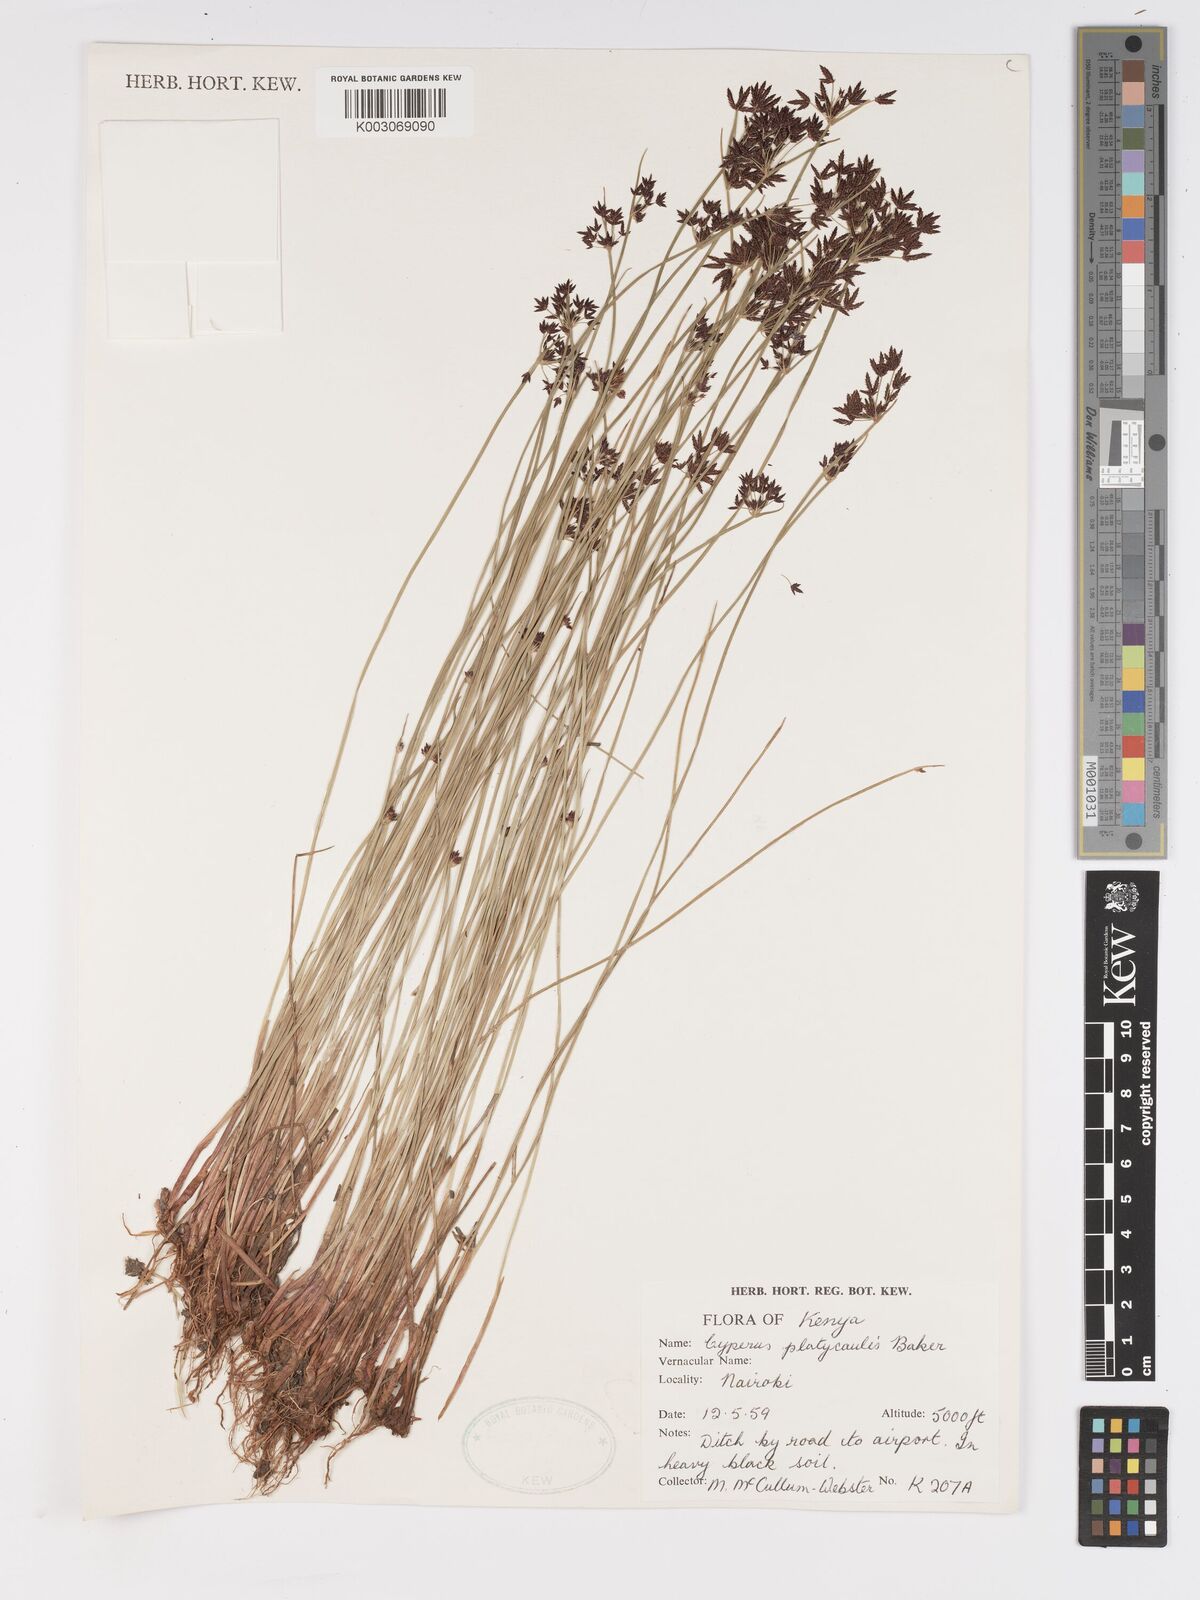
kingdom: Plantae
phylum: Tracheophyta
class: Liliopsida
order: Poales
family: Cyperaceae
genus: Cyperus
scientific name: Cyperus platycaulis
